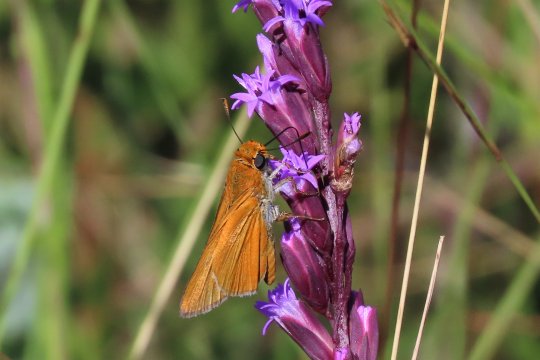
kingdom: Animalia
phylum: Arthropoda
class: Insecta
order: Lepidoptera
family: Hesperiidae
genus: Euphyes
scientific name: Euphyes arpa
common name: Palmetto Skipper
